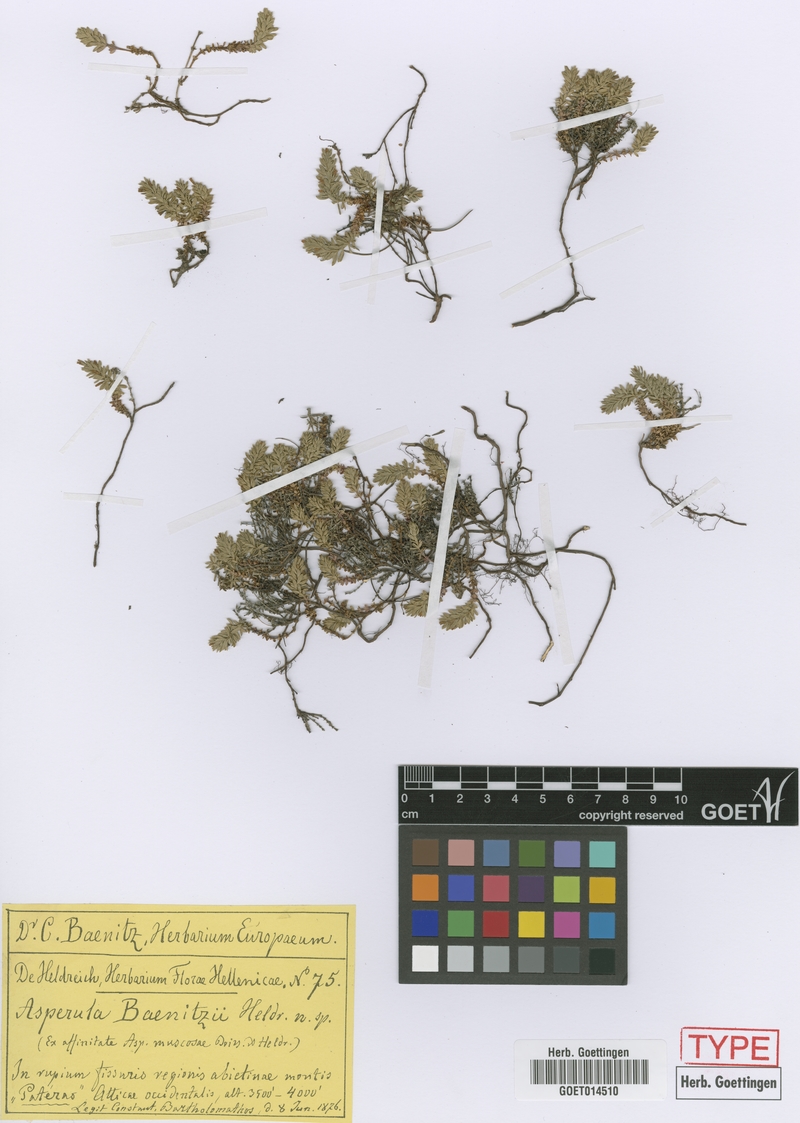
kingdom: Plantae
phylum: Tracheophyta
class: Magnoliopsida
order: Gentianales
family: Rubiaceae
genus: Thliphthisa
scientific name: Thliphthisa baenitzii
